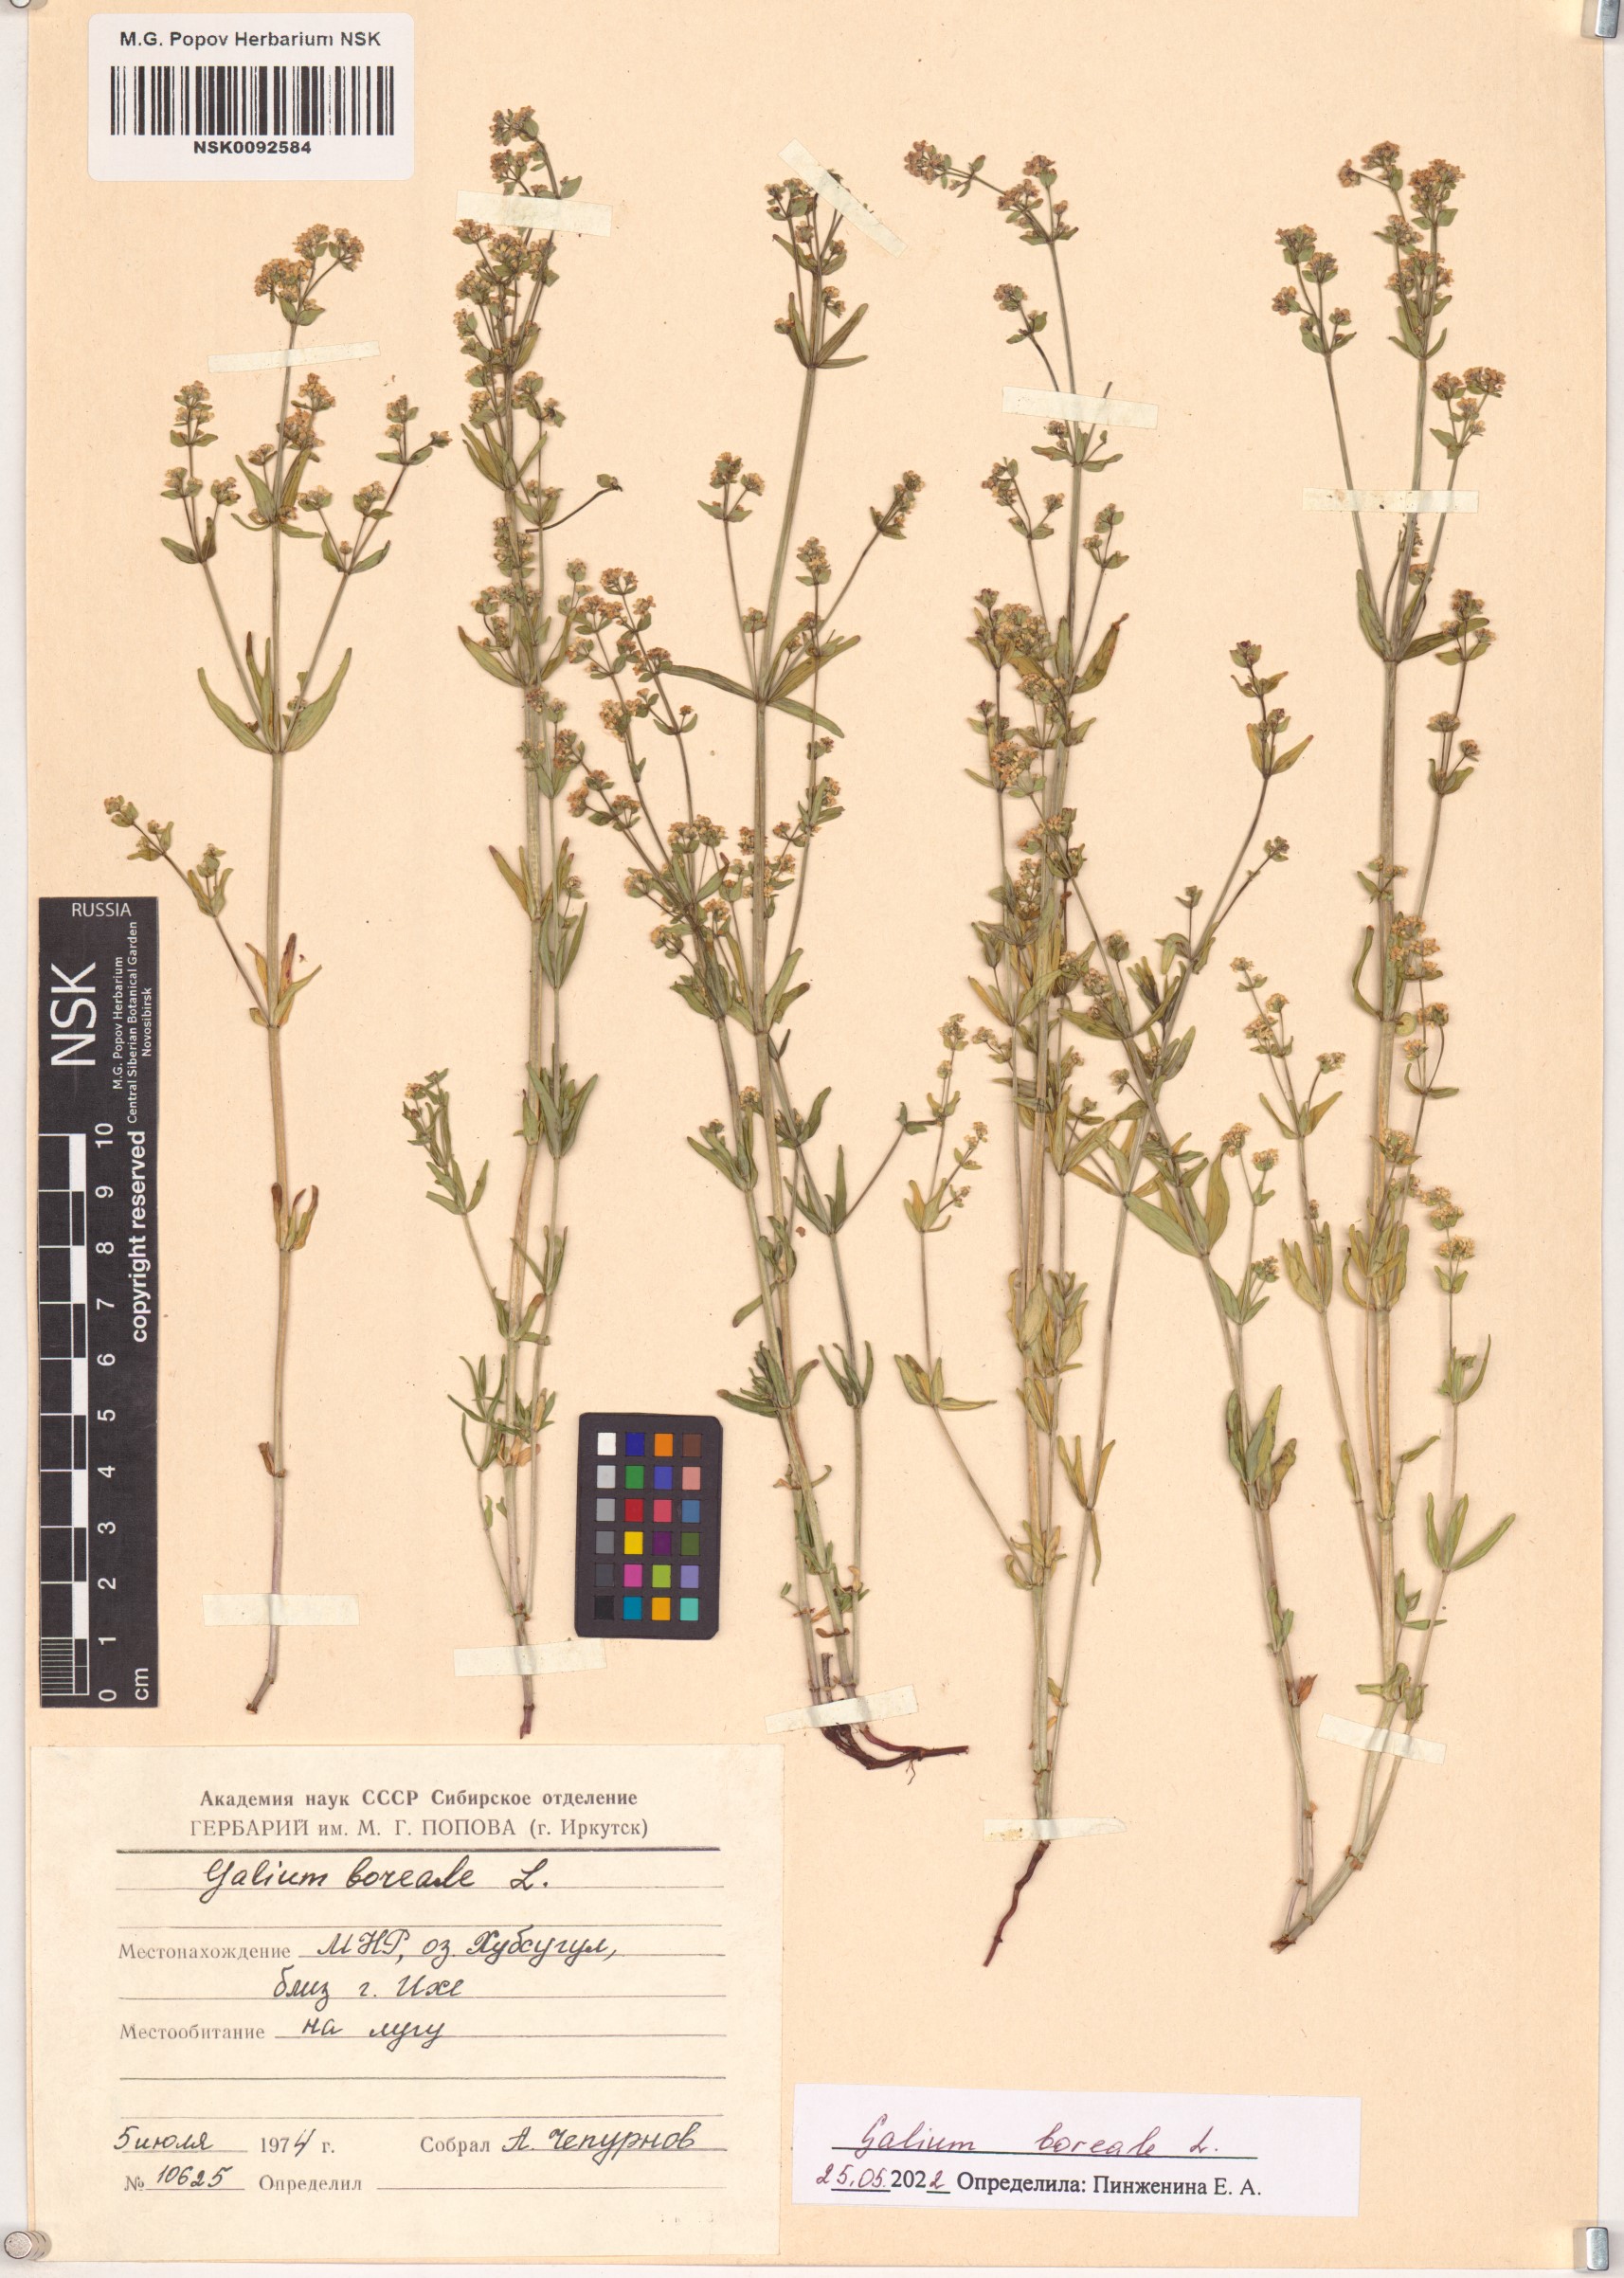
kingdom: Plantae
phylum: Tracheophyta
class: Magnoliopsida
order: Gentianales
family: Rubiaceae
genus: Galium
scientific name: Galium boreale
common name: Northern bedstraw
